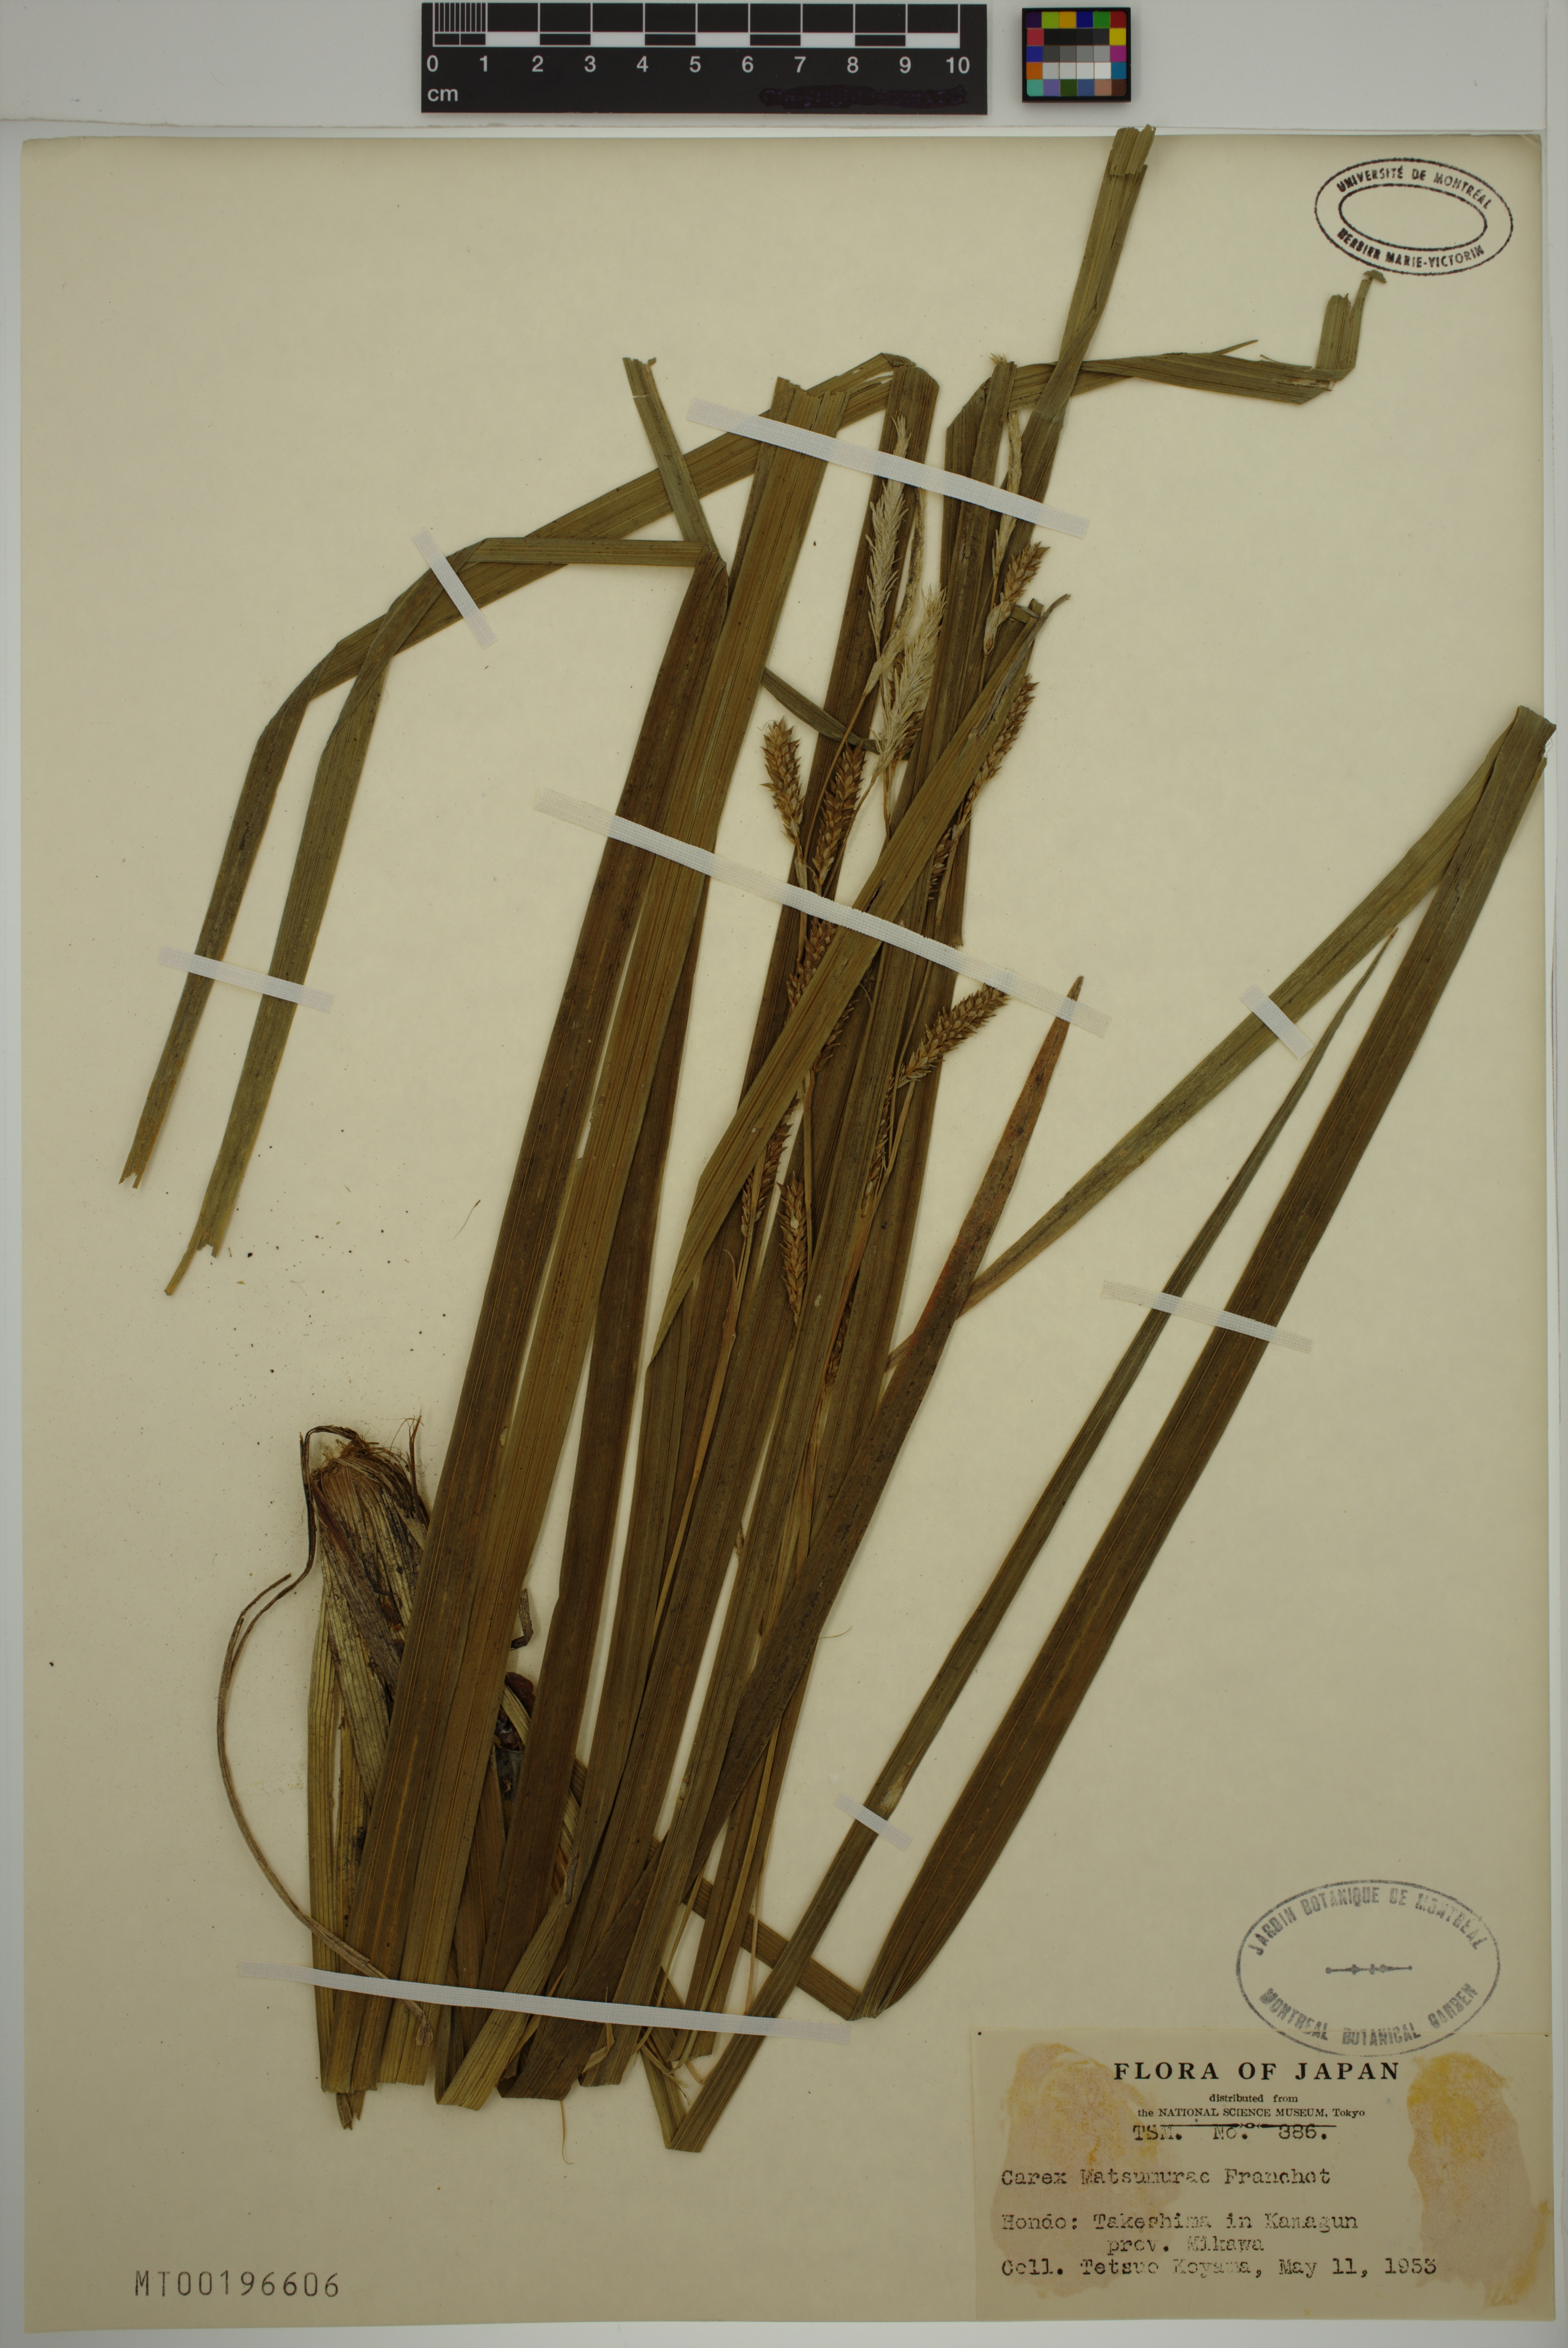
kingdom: Plantae
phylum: Tracheophyta
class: Liliopsida
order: Poales
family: Cyperaceae
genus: Carex
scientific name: Carex matsumurae
